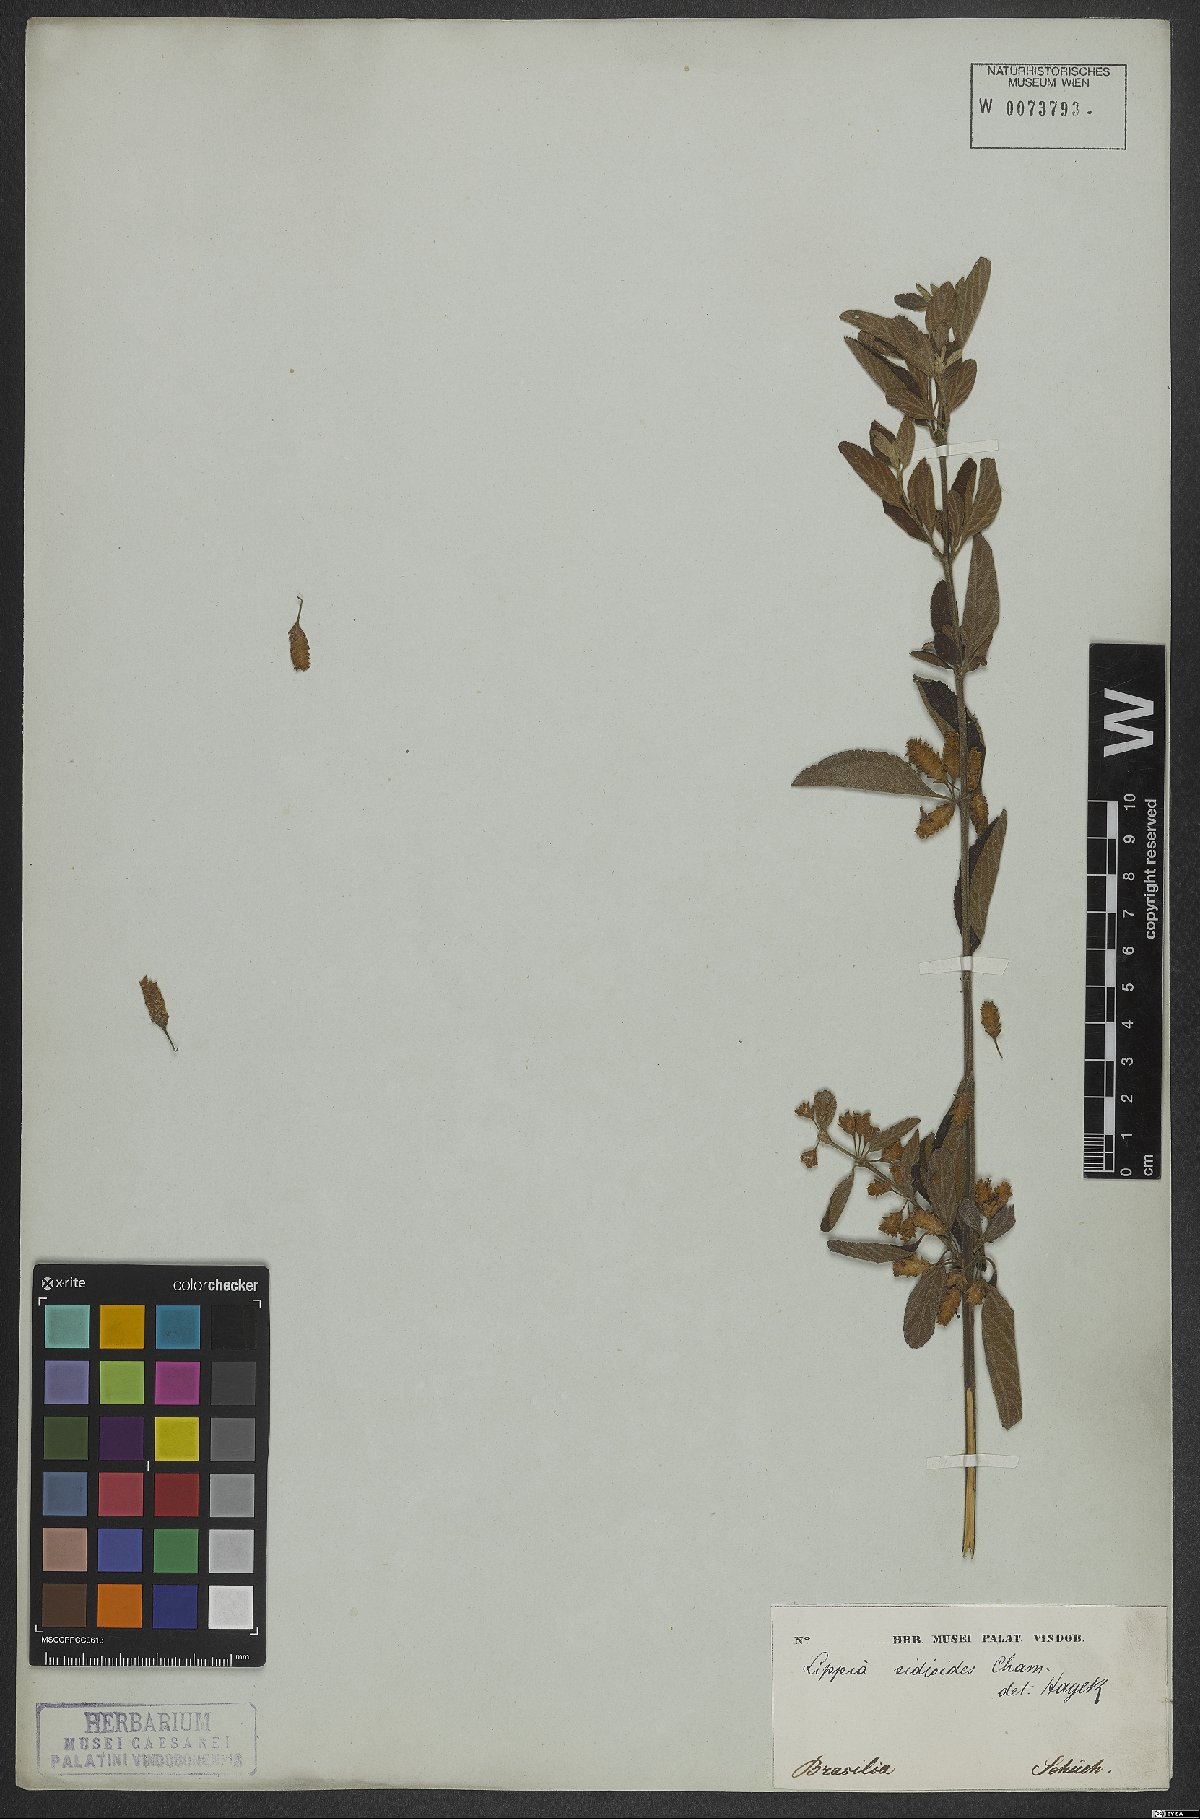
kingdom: Plantae
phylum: Tracheophyta
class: Magnoliopsida
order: Lamiales
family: Verbenaceae
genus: Lippia
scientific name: Lippia origanoides
